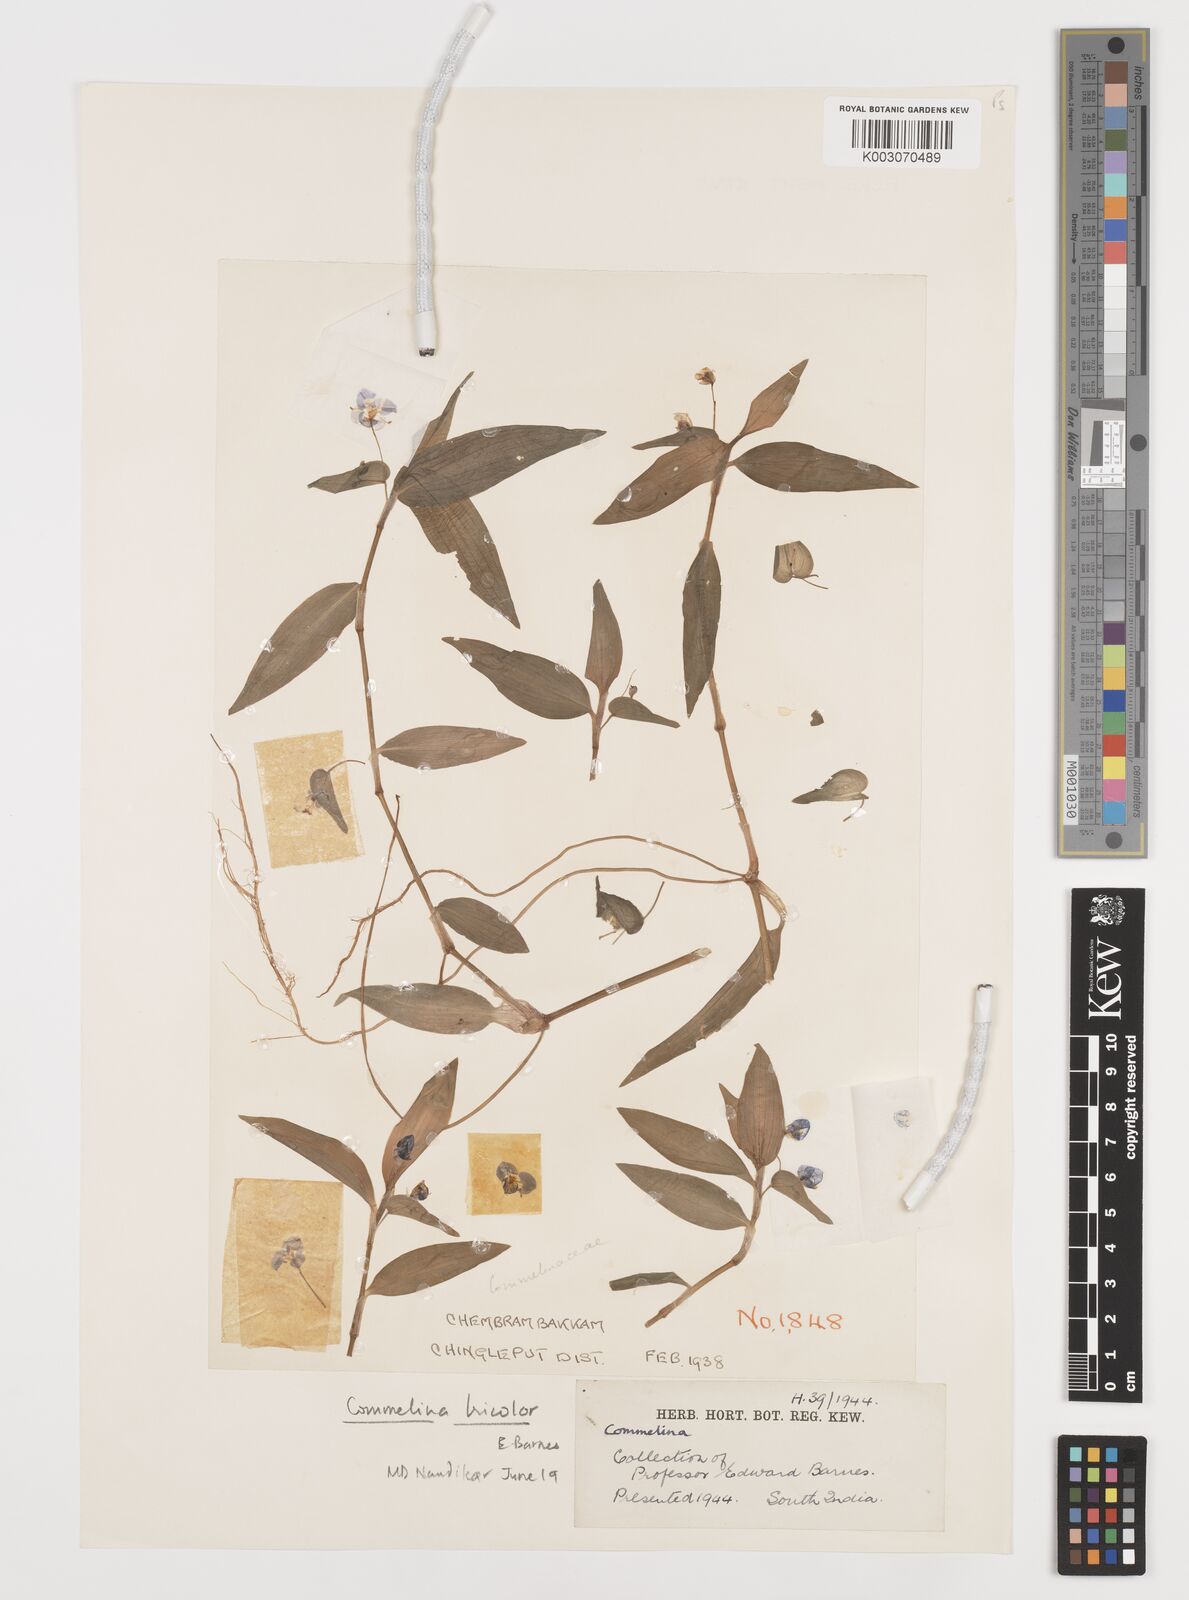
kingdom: Plantae
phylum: Tracheophyta
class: Liliopsida
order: Commelinales
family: Commelinaceae
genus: Commelina
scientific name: Commelina
